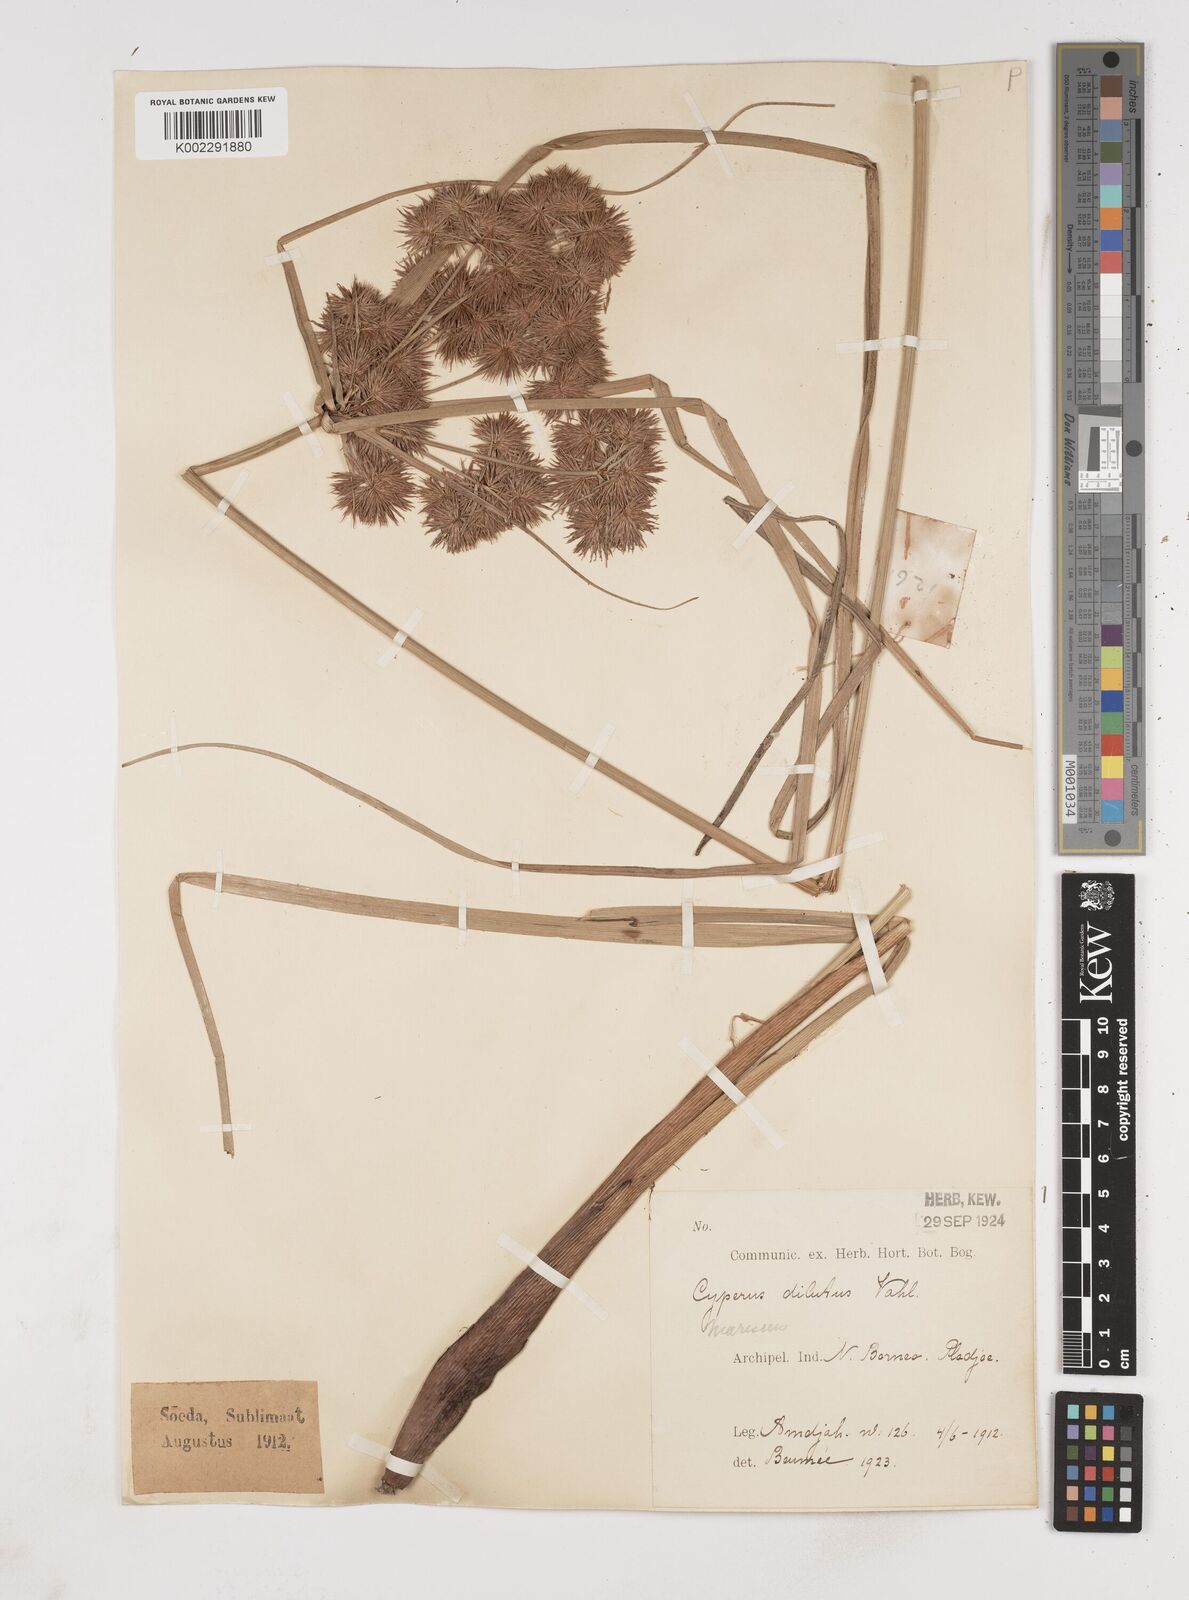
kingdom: Plantae
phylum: Tracheophyta
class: Liliopsida
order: Poales
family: Cyperaceae
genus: Cyperus
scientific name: Cyperus compactus
